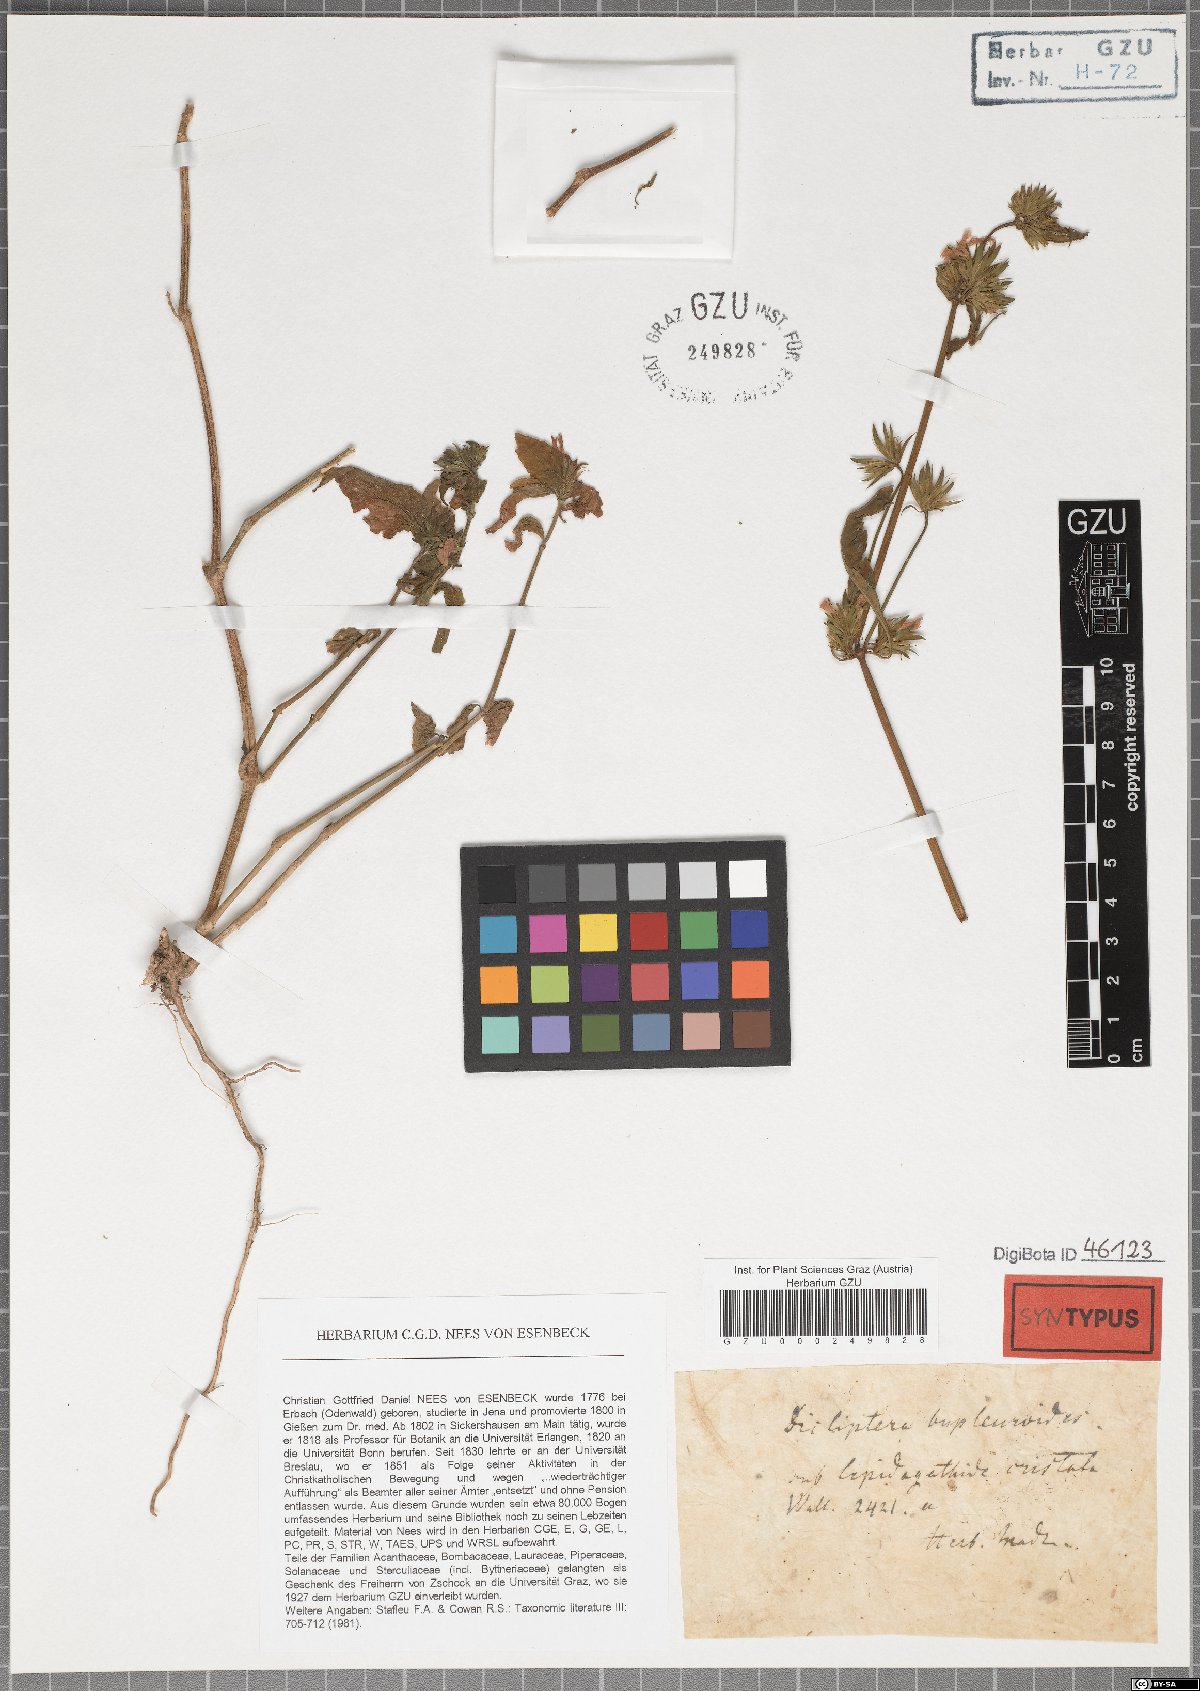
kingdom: Plantae
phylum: Tracheophyta
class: Magnoliopsida
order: Lamiales
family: Acanthaceae
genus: Dicliptera
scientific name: Dicliptera bupleuroides
